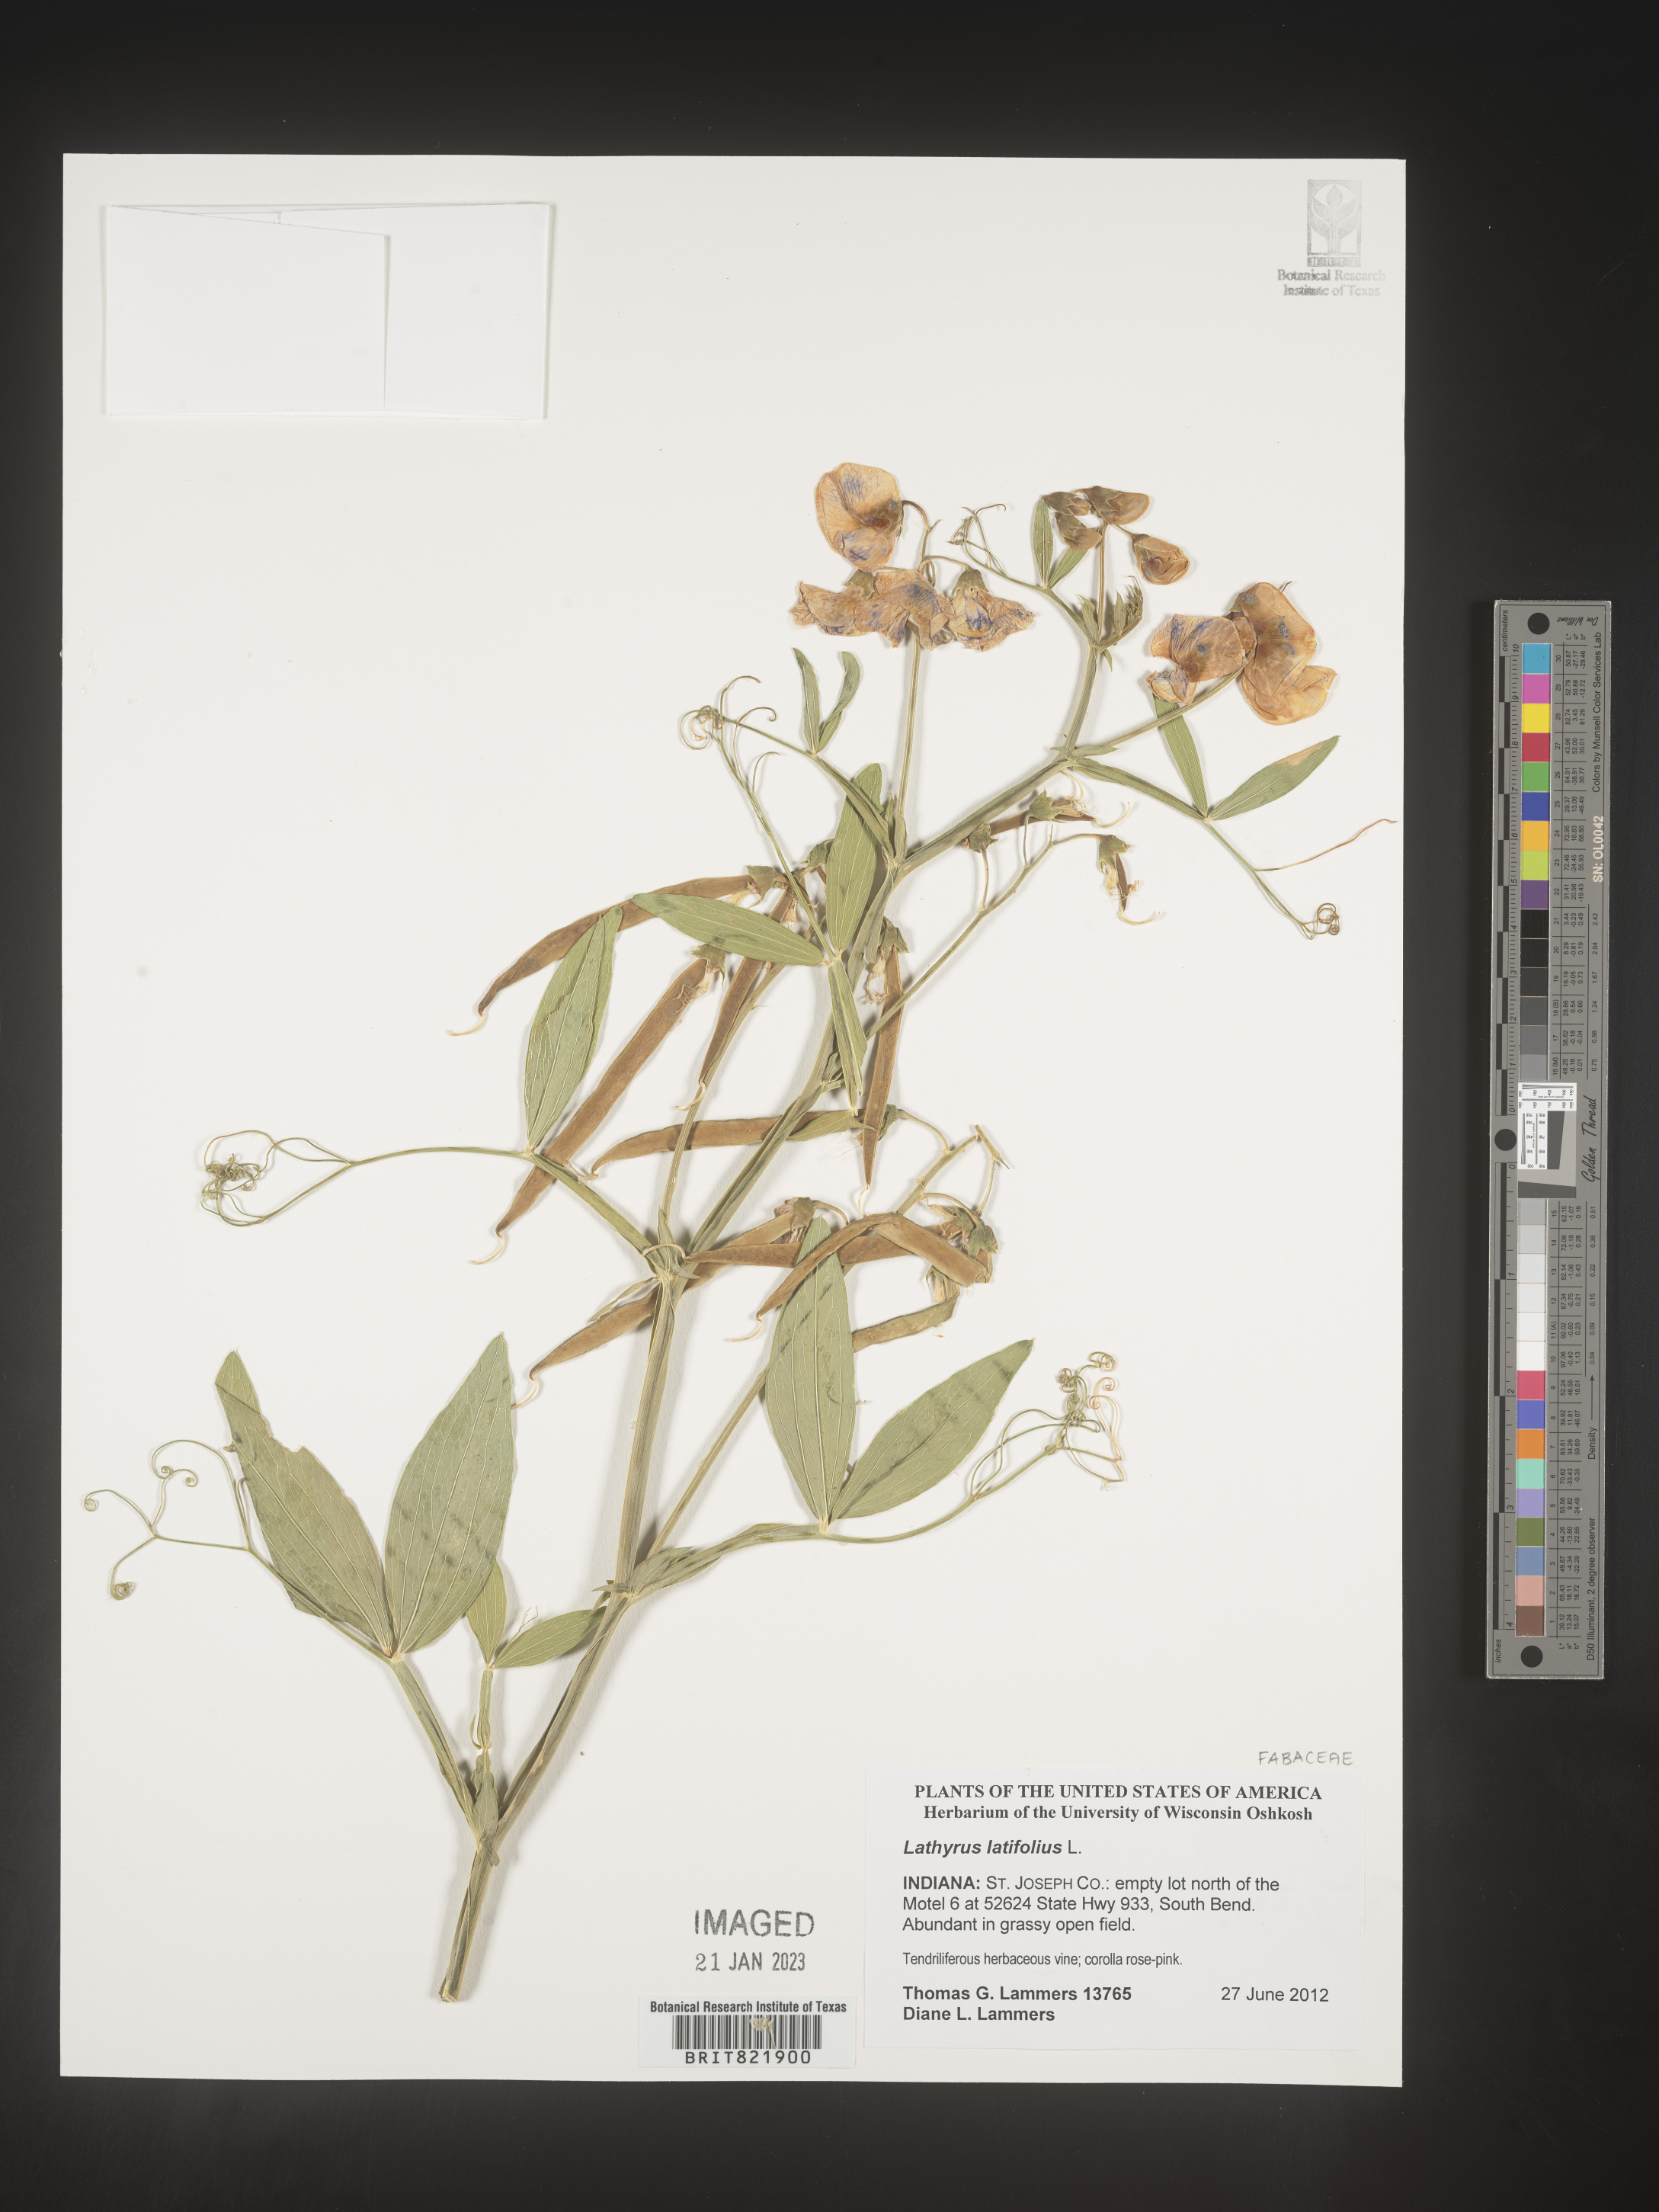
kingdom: Plantae
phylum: Tracheophyta
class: Magnoliopsida
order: Fabales
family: Fabaceae
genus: Lathyrus
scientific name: Lathyrus latifolius
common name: Perennial pea
